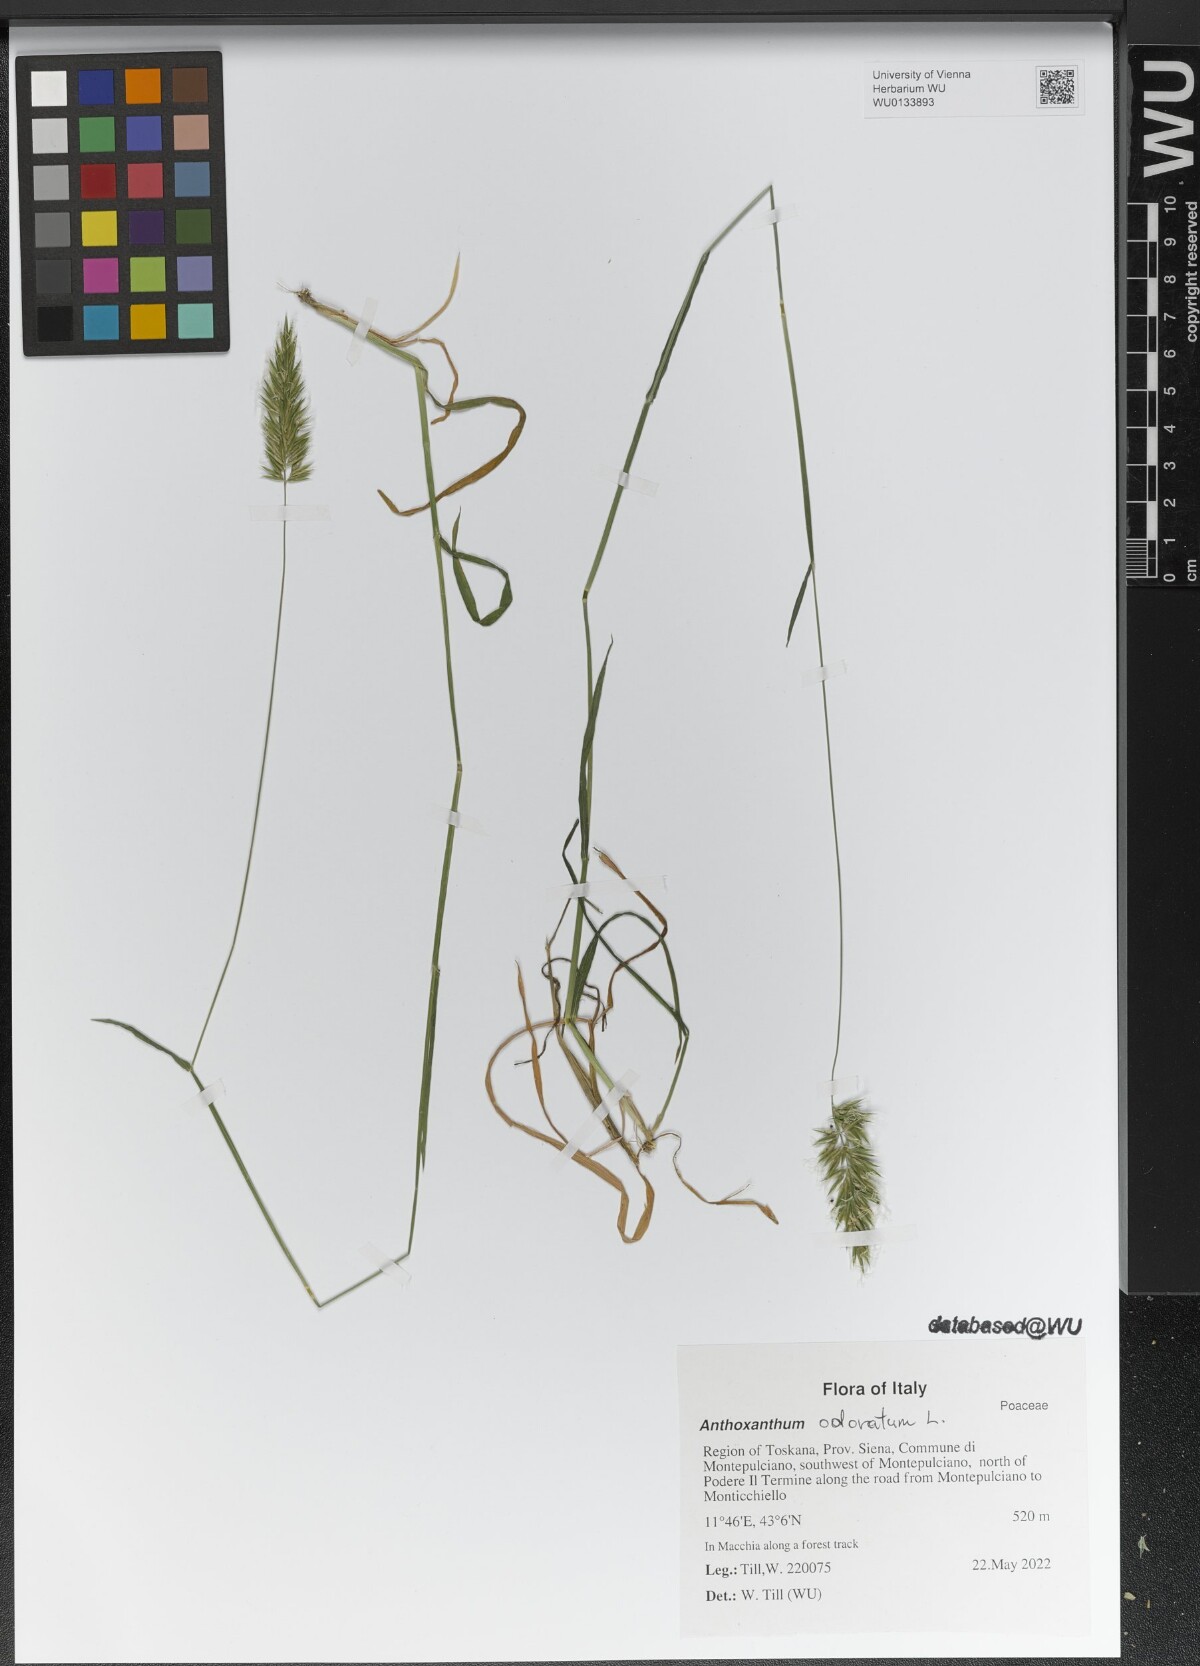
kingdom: Plantae
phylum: Tracheophyta
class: Liliopsida
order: Poales
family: Poaceae
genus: Anthoxanthum
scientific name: Anthoxanthum odoratum
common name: Sweet vernalgrass
